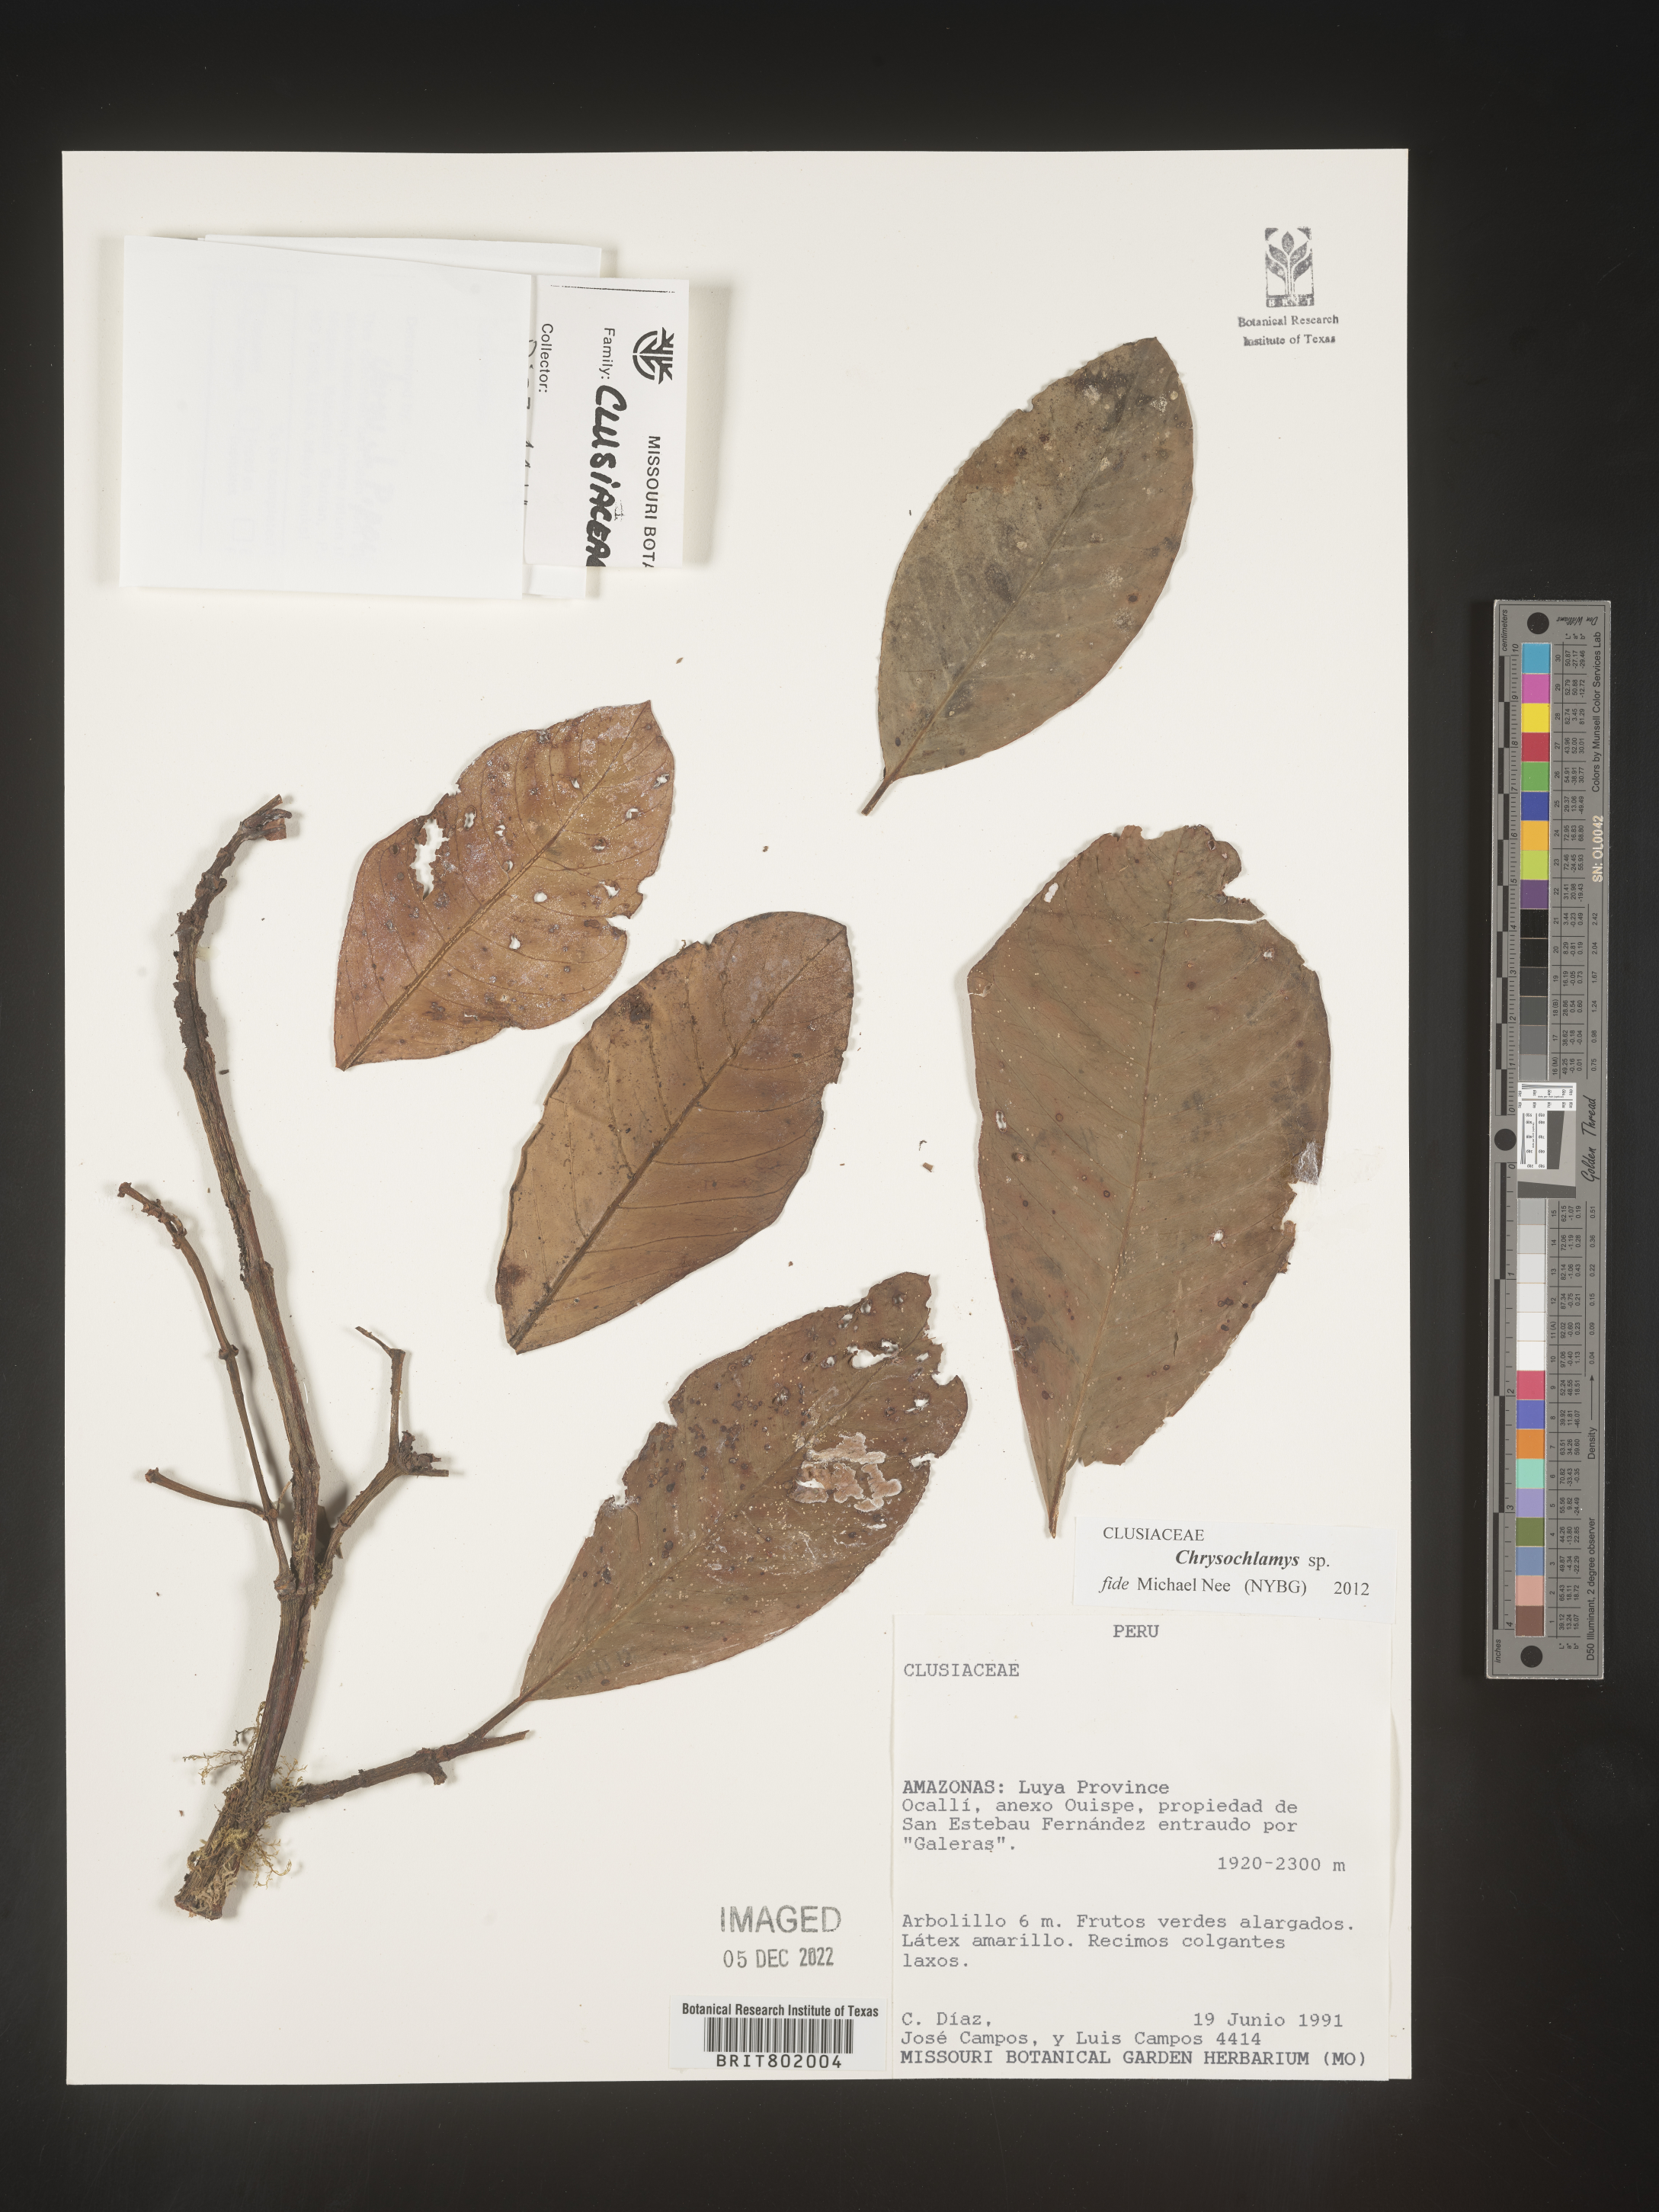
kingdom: Plantae
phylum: Tracheophyta
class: Magnoliopsida
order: Malpighiales
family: Clusiaceae
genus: Chrysochlamys
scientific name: Chrysochlamys
